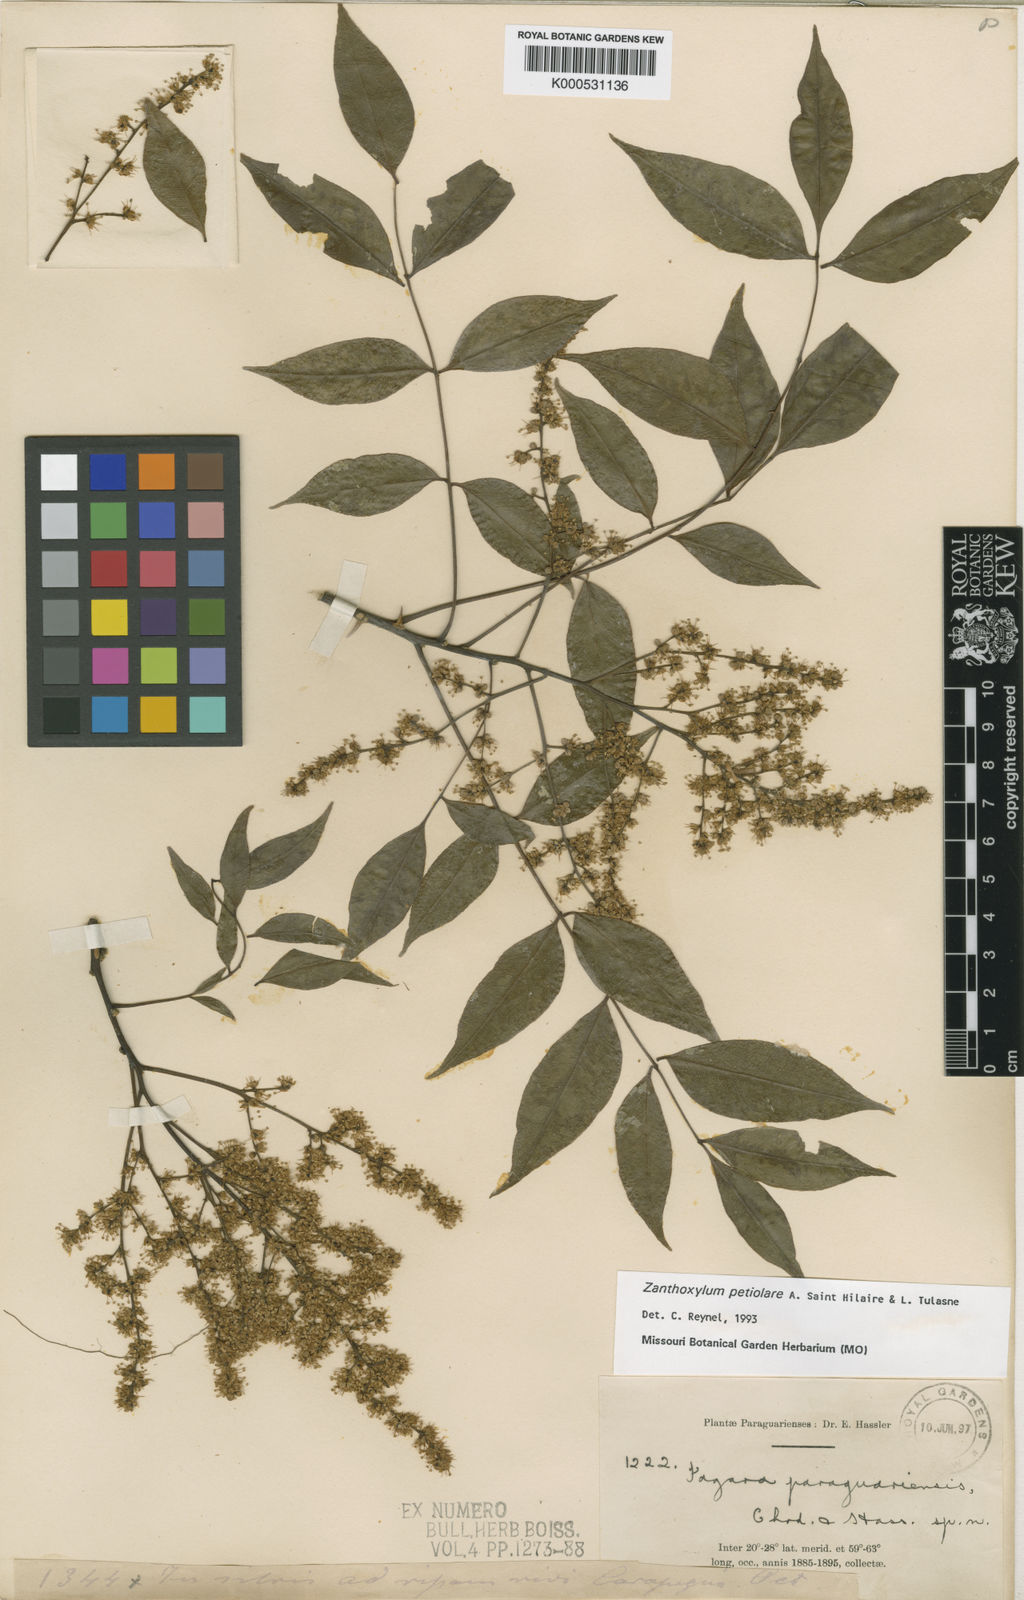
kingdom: Plantae
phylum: Tracheophyta
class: Magnoliopsida
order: Sapindales
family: Rutaceae
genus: Zanthoxylum
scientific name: Zanthoxylum petiolare
